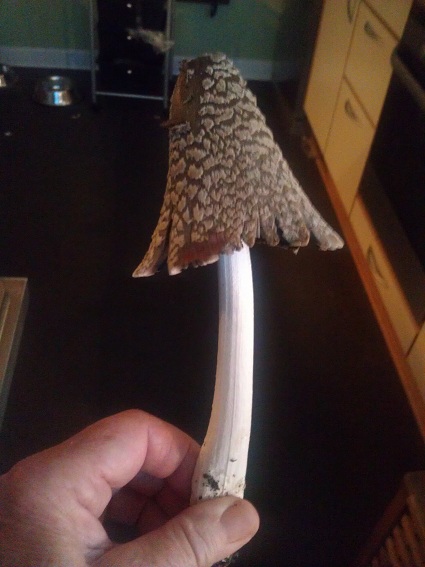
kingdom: Fungi
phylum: Basidiomycota
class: Agaricomycetes
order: Agaricales
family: Psathyrellaceae
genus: Coprinopsis
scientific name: Coprinopsis picacea
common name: skade-blækhat
